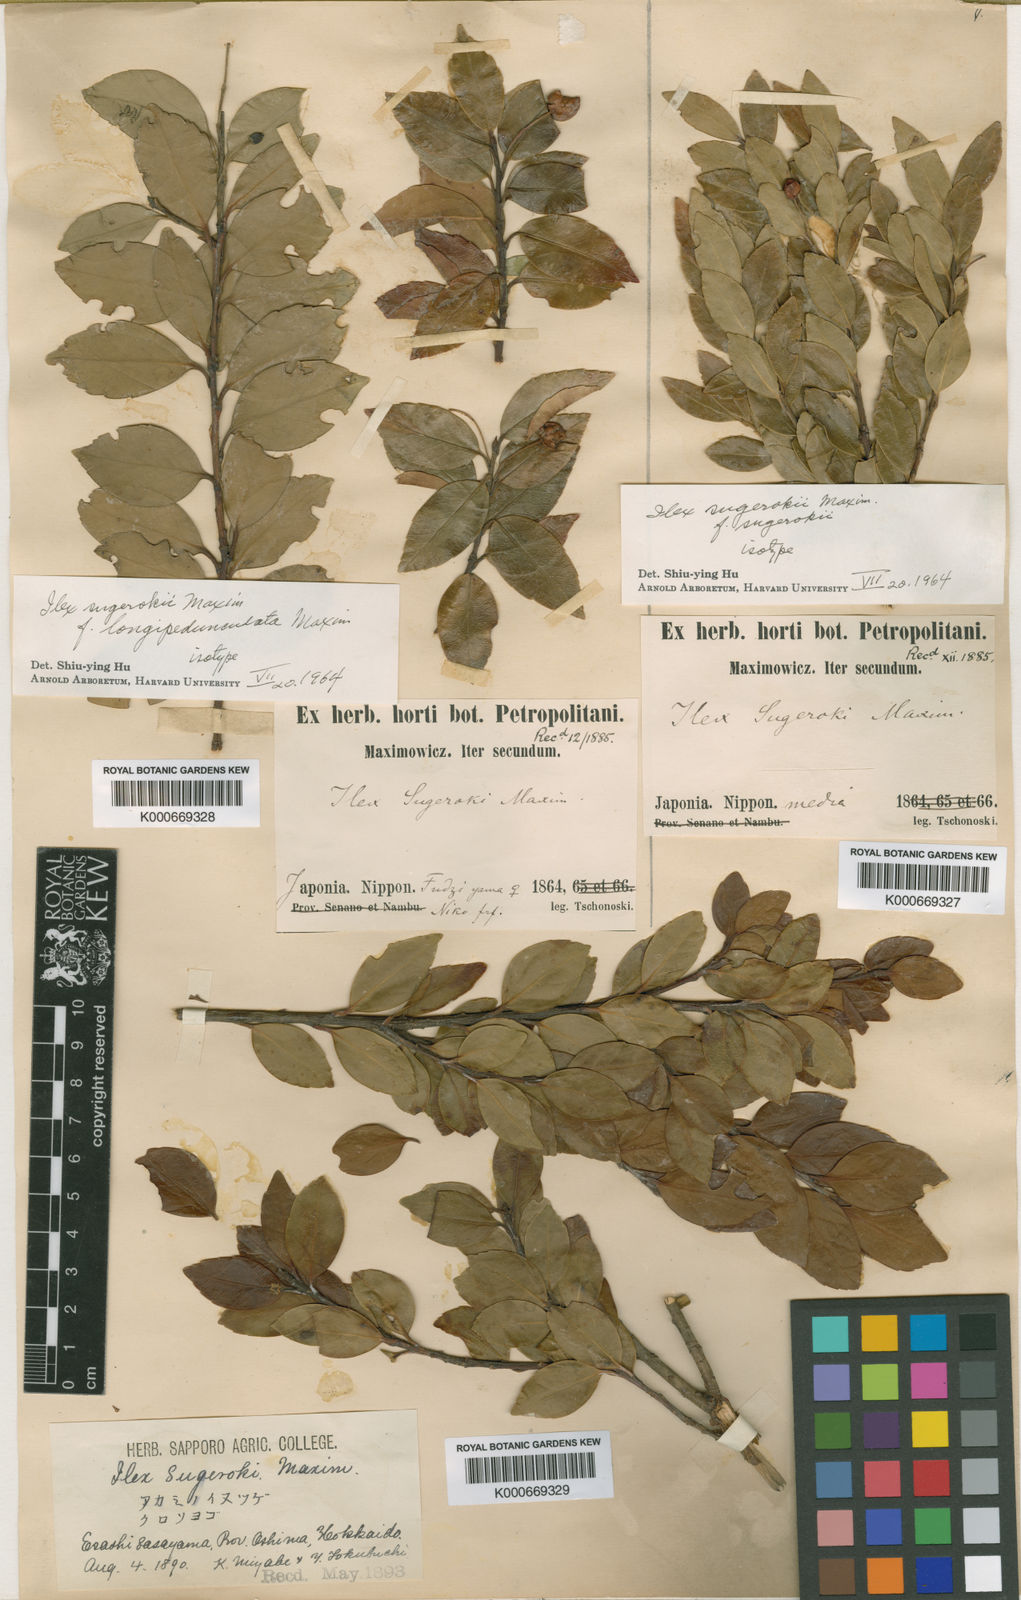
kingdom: Plantae
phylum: Tracheophyta
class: Magnoliopsida
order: Aquifoliales
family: Aquifoliaceae
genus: Ilex
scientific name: Ilex sugerokii
